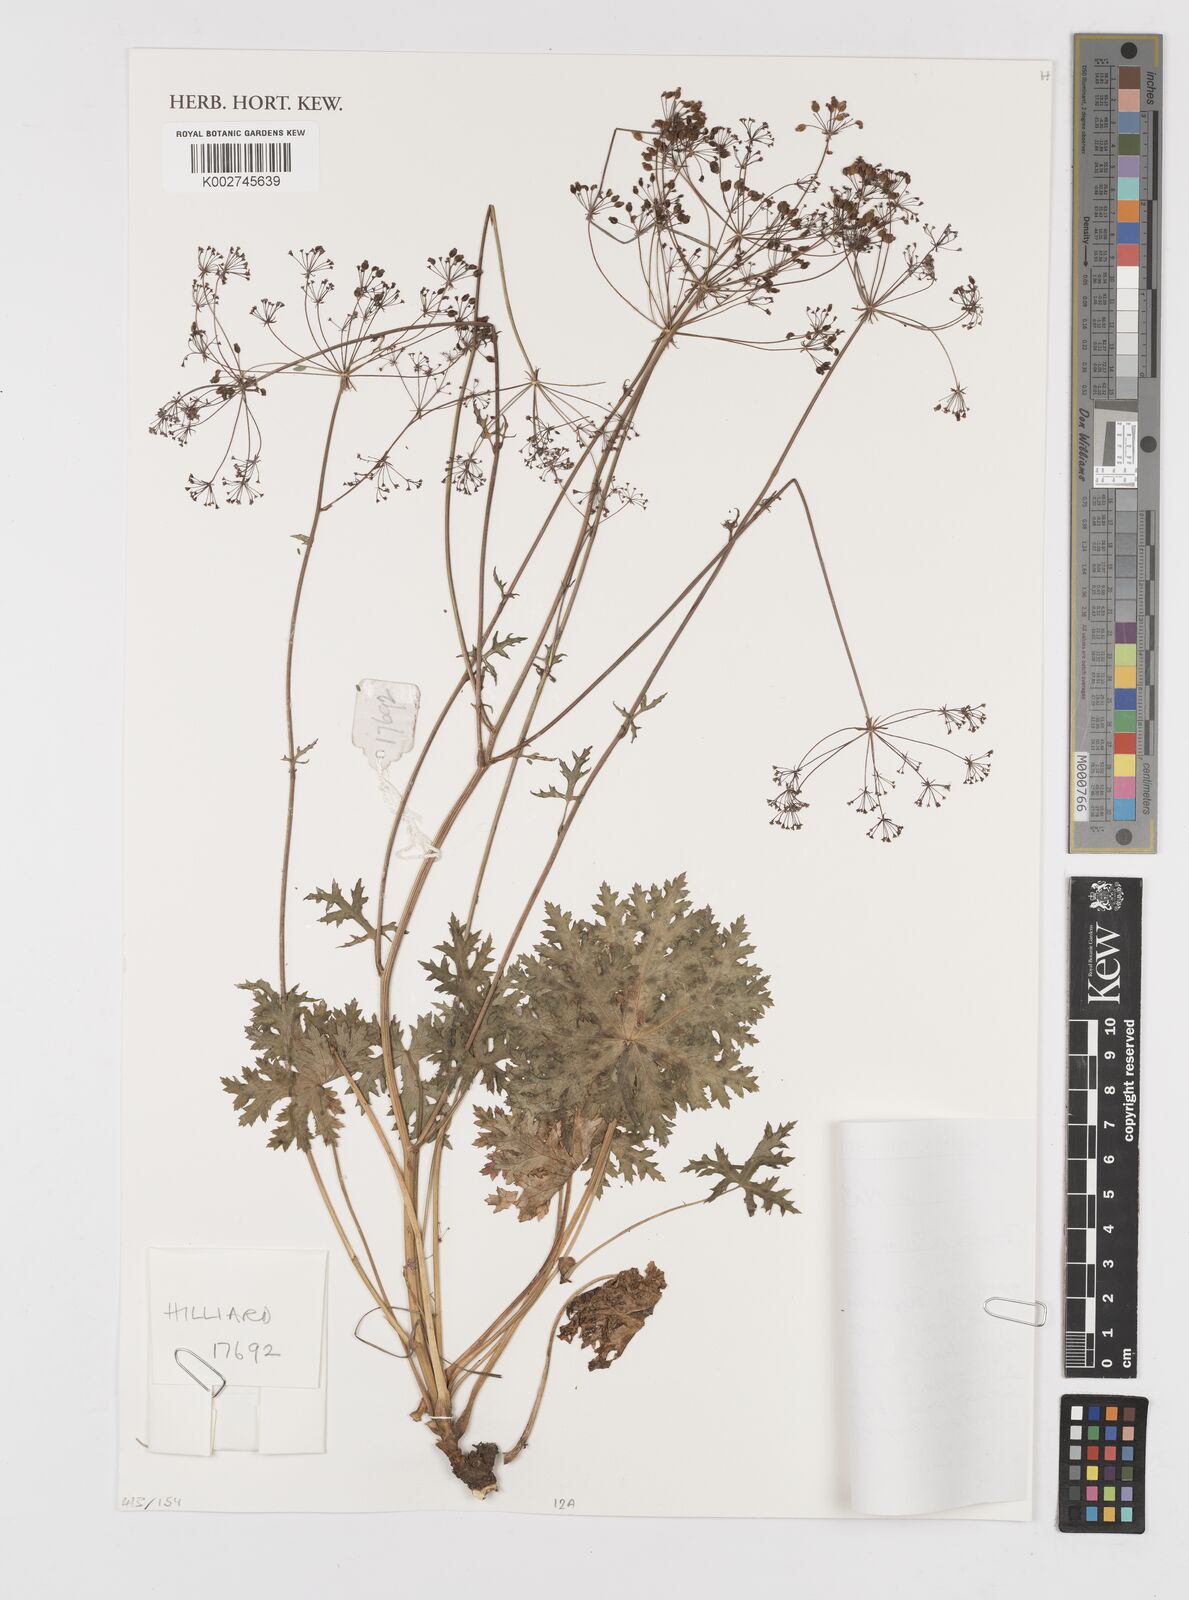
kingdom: Plantae
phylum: Tracheophyta
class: Magnoliopsida
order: Apiales
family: Apiaceae
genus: Dracosciadium
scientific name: Dracosciadium saniculifolium
